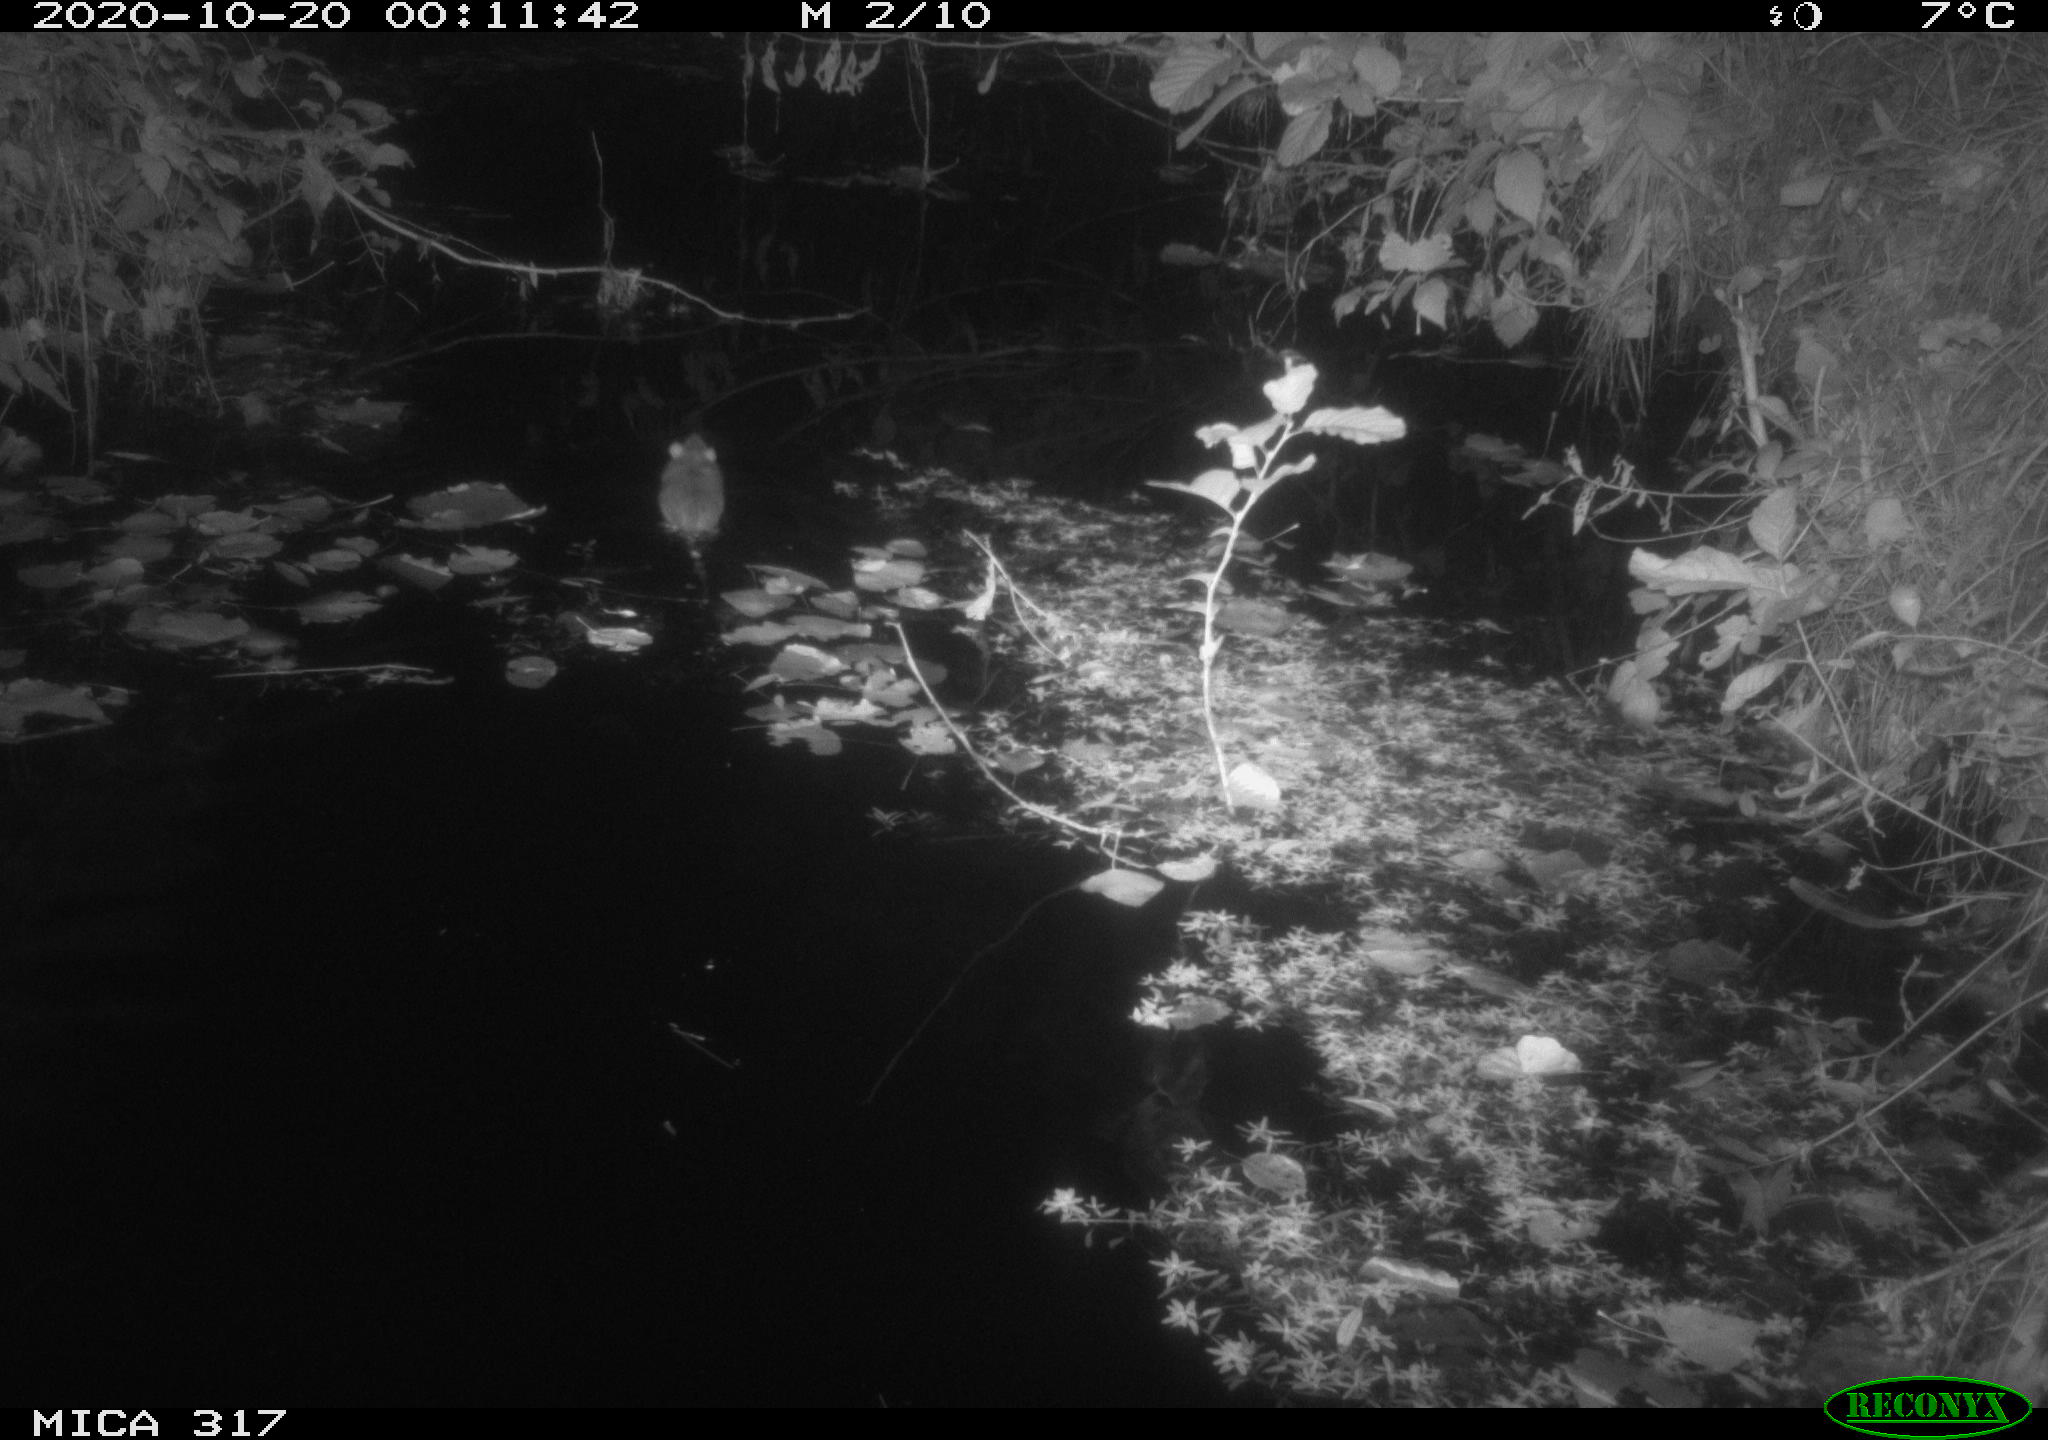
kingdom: Animalia
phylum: Chordata
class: Mammalia
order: Rodentia
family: Muridae
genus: Rattus
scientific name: Rattus norvegicus
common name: Brown rat
